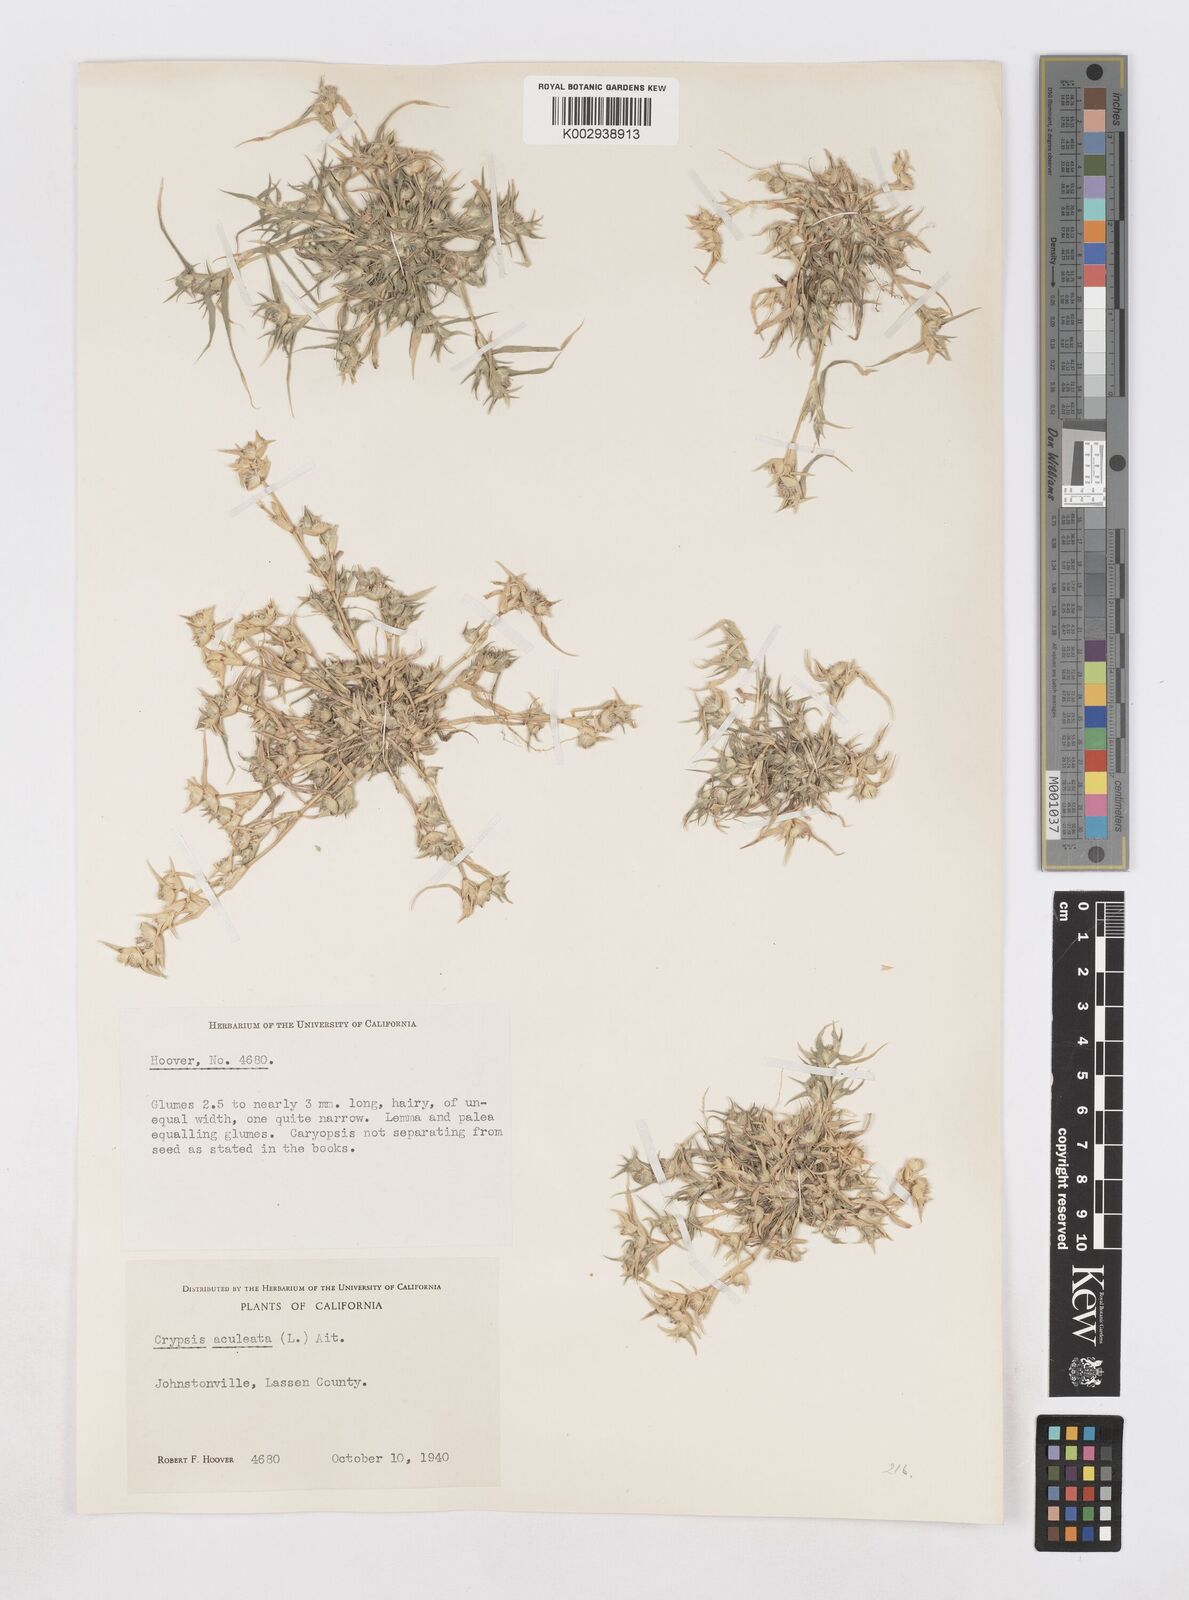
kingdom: Animalia
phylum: Arthropoda
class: Insecta
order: Coleoptera
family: Tenebrionidae
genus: Crypsis
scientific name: Crypsis
